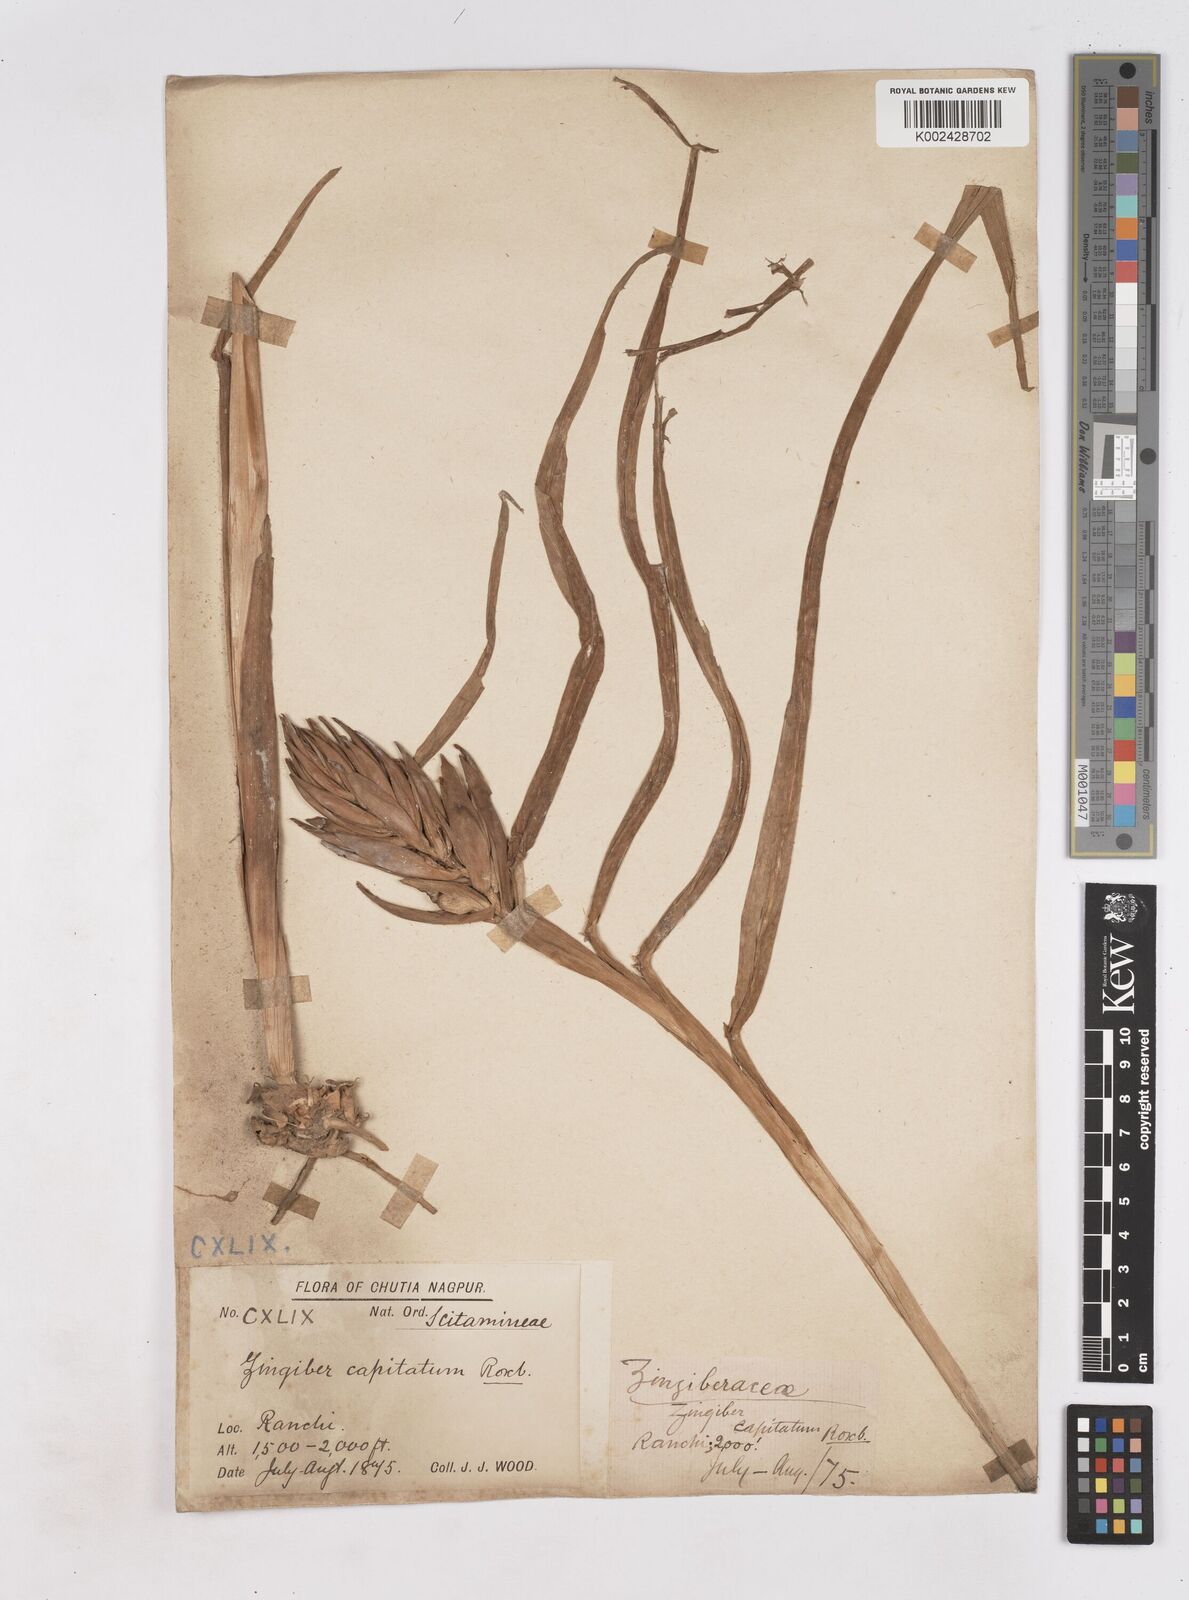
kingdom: Plantae
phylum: Tracheophyta
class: Liliopsida
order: Zingiberales
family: Zingiberaceae
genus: Zingiber
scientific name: Zingiber capitatum
